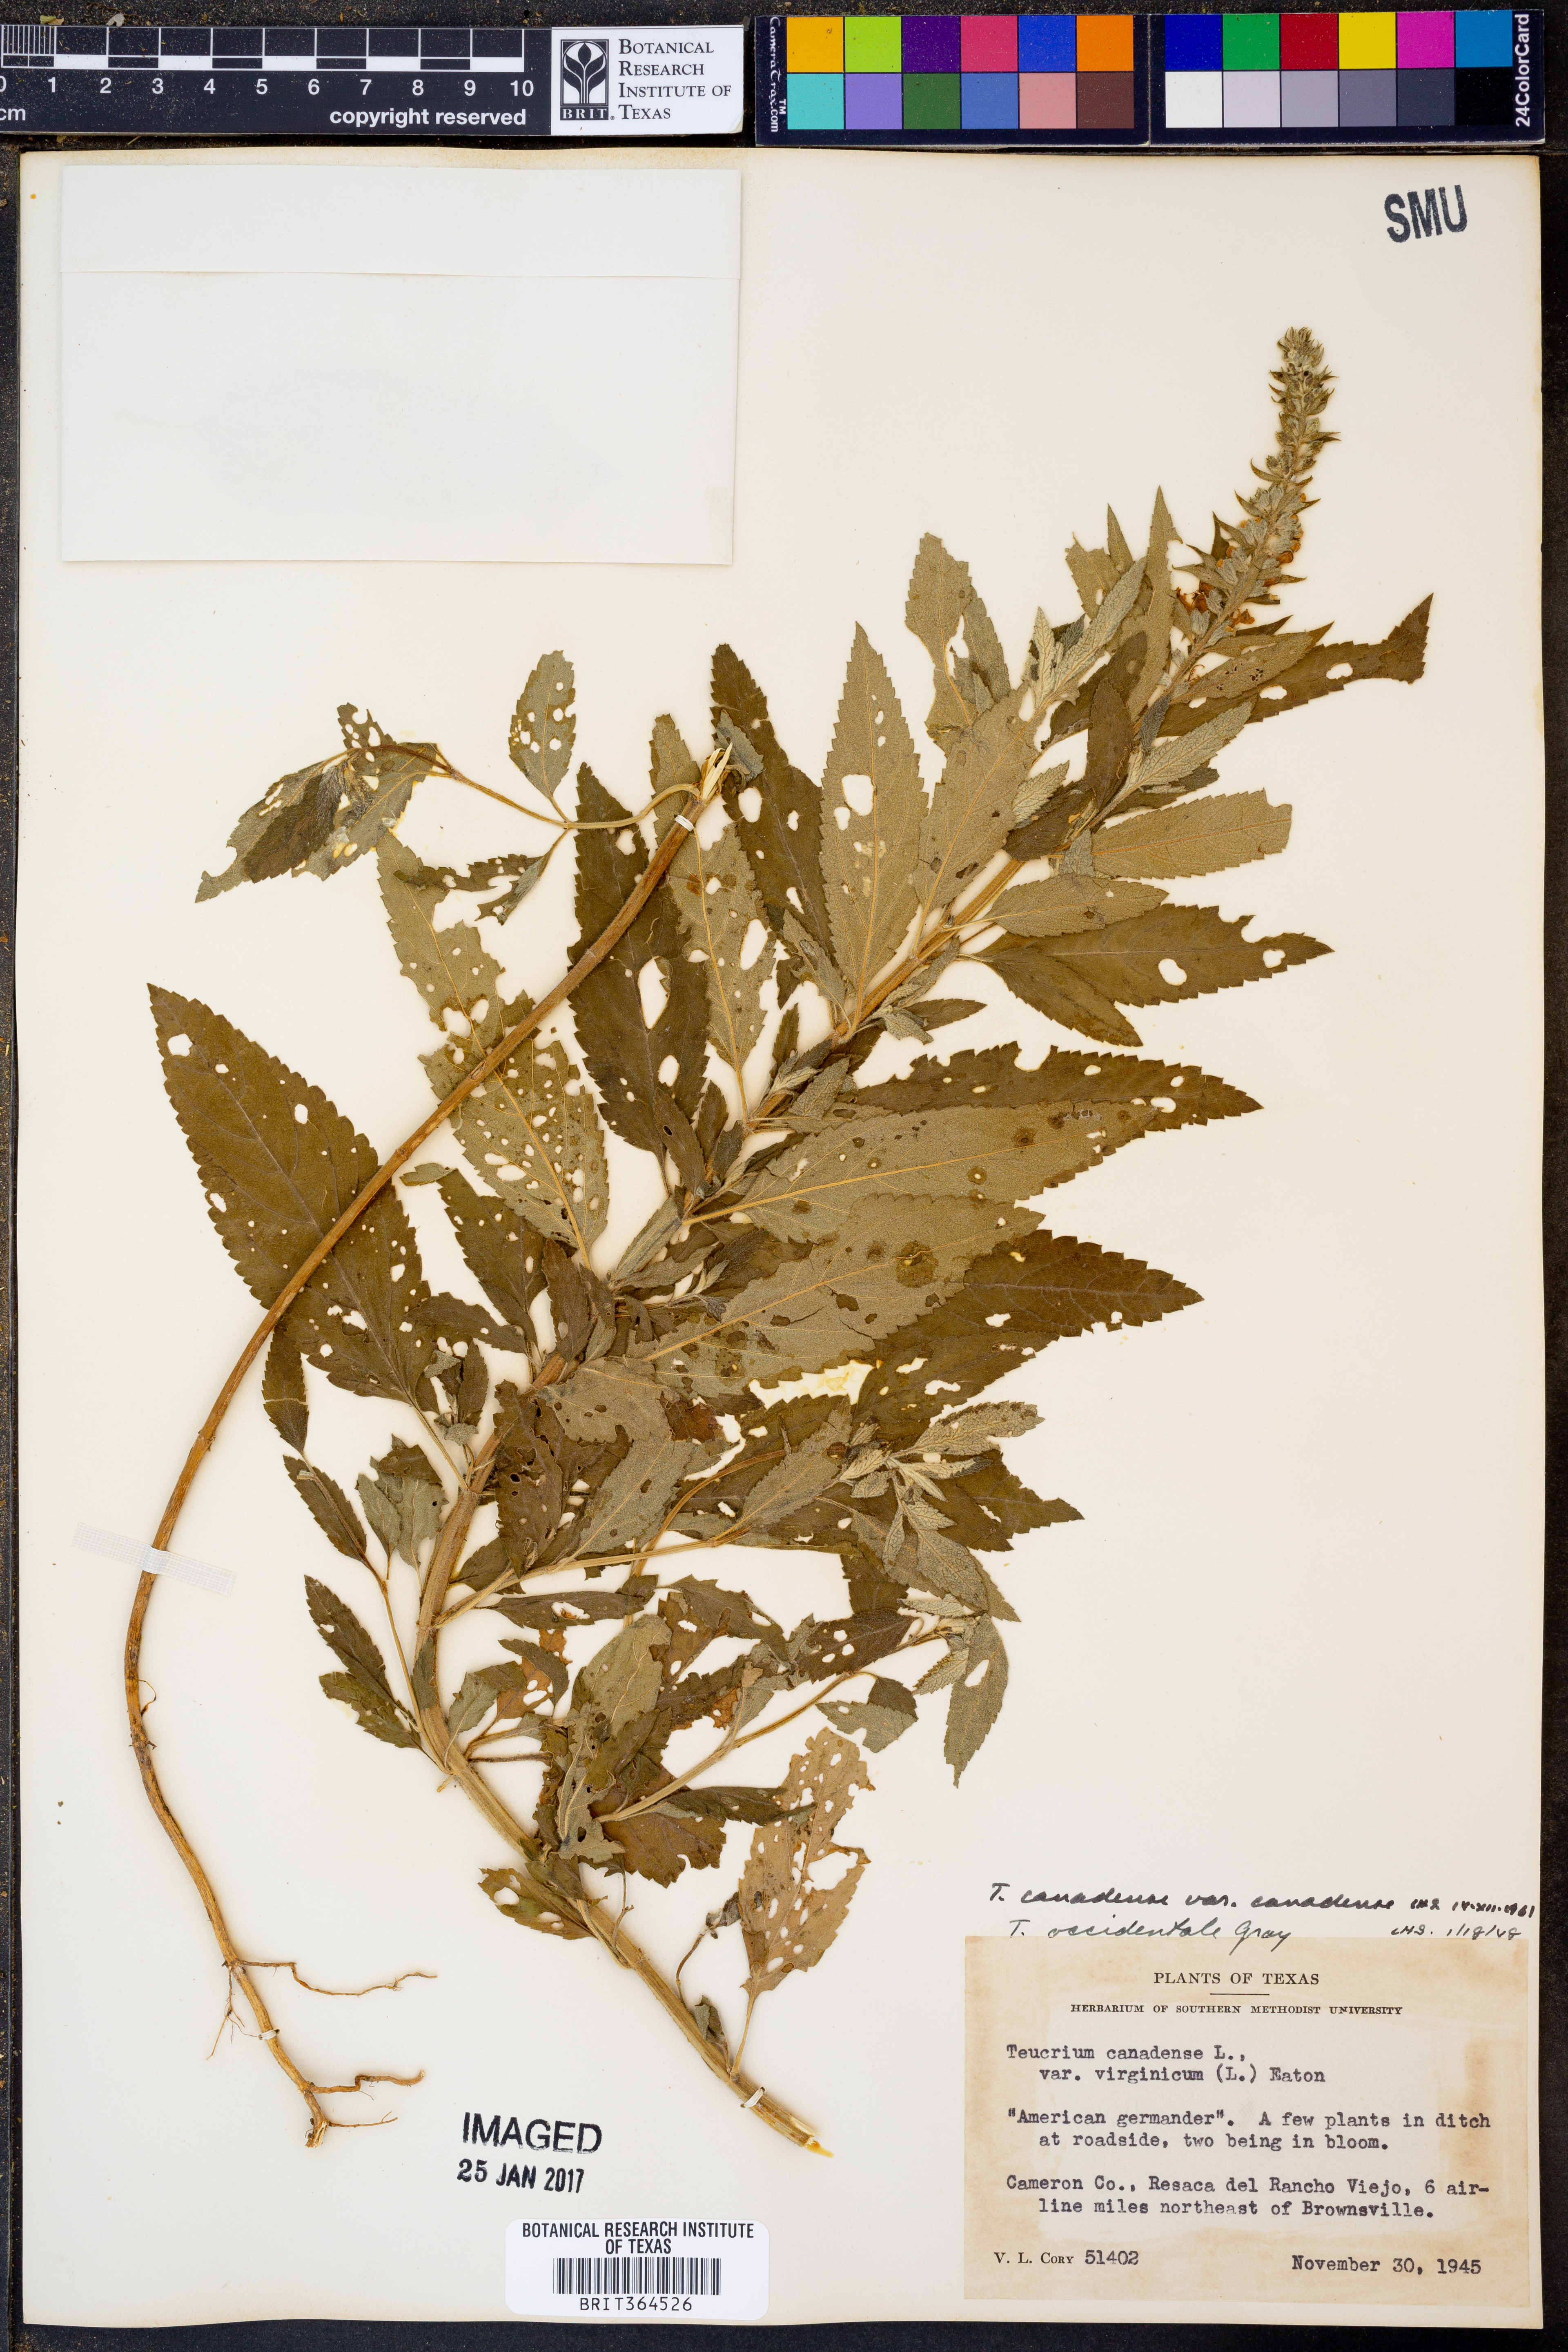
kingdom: Plantae
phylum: Tracheophyta
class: Magnoliopsida
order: Lamiales
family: Lamiaceae
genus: Teucrium
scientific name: Teucrium canadense
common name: American germander
